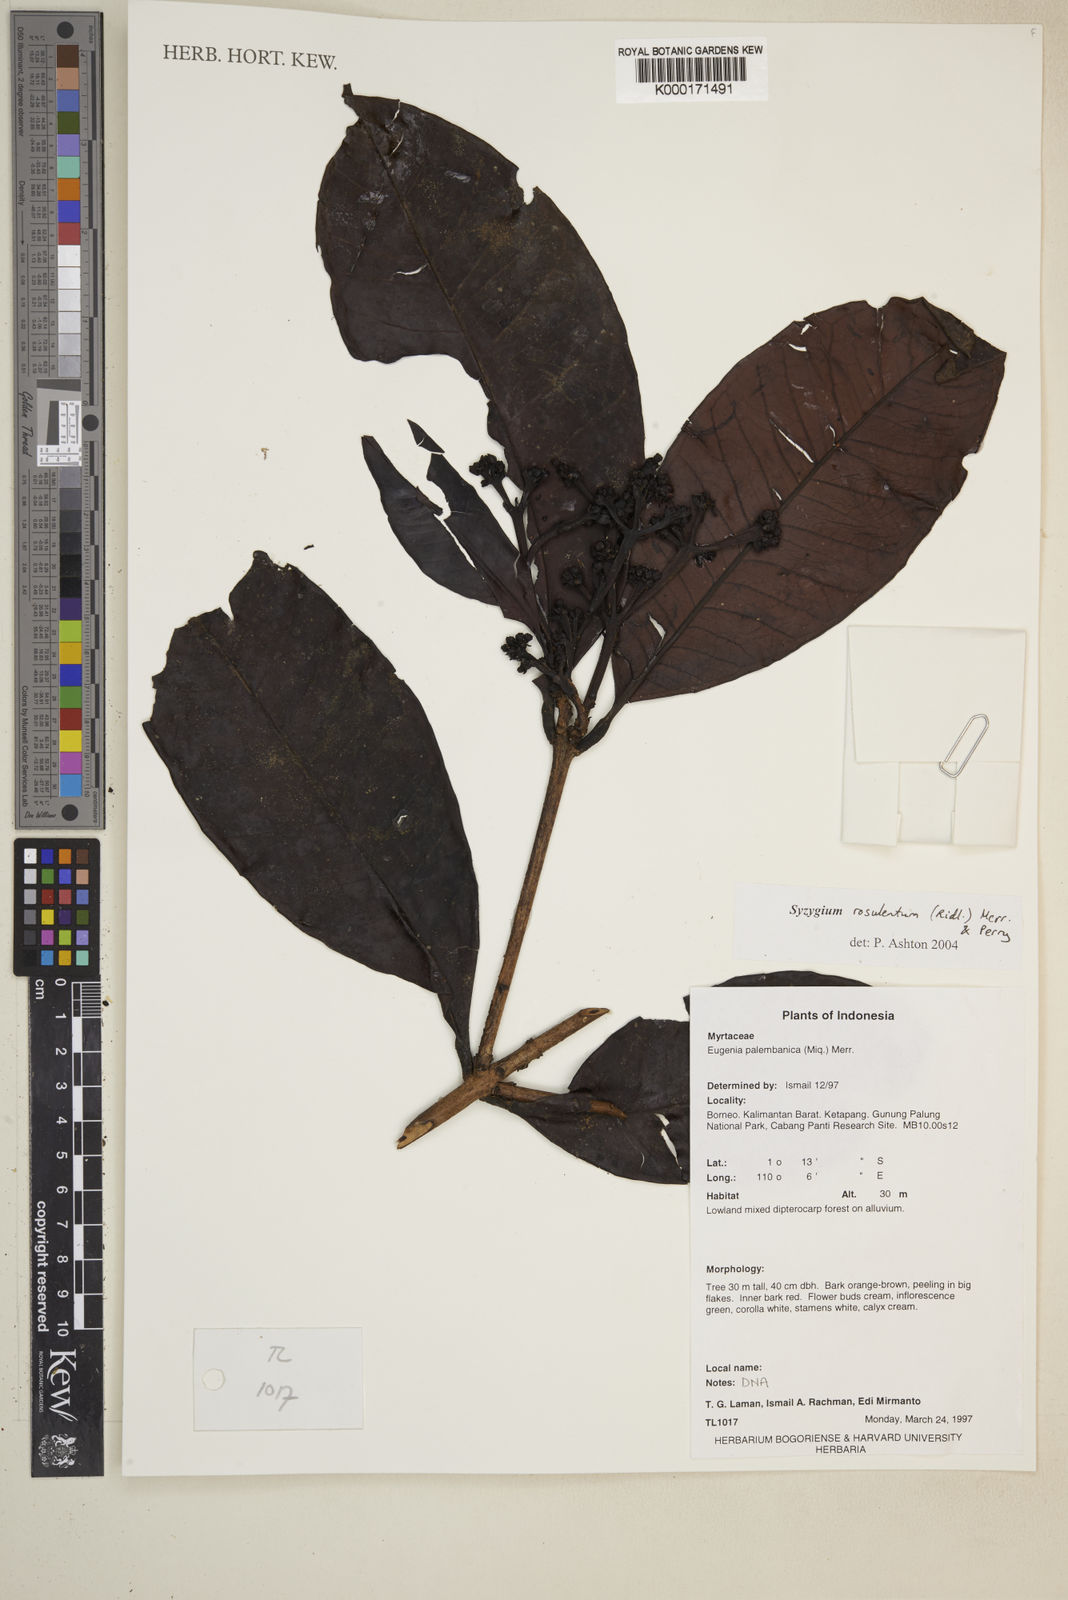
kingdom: Plantae
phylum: Tracheophyta
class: Magnoliopsida
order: Myrtales
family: Myrtaceae
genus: Syzygium
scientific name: Syzygium rosulentum
